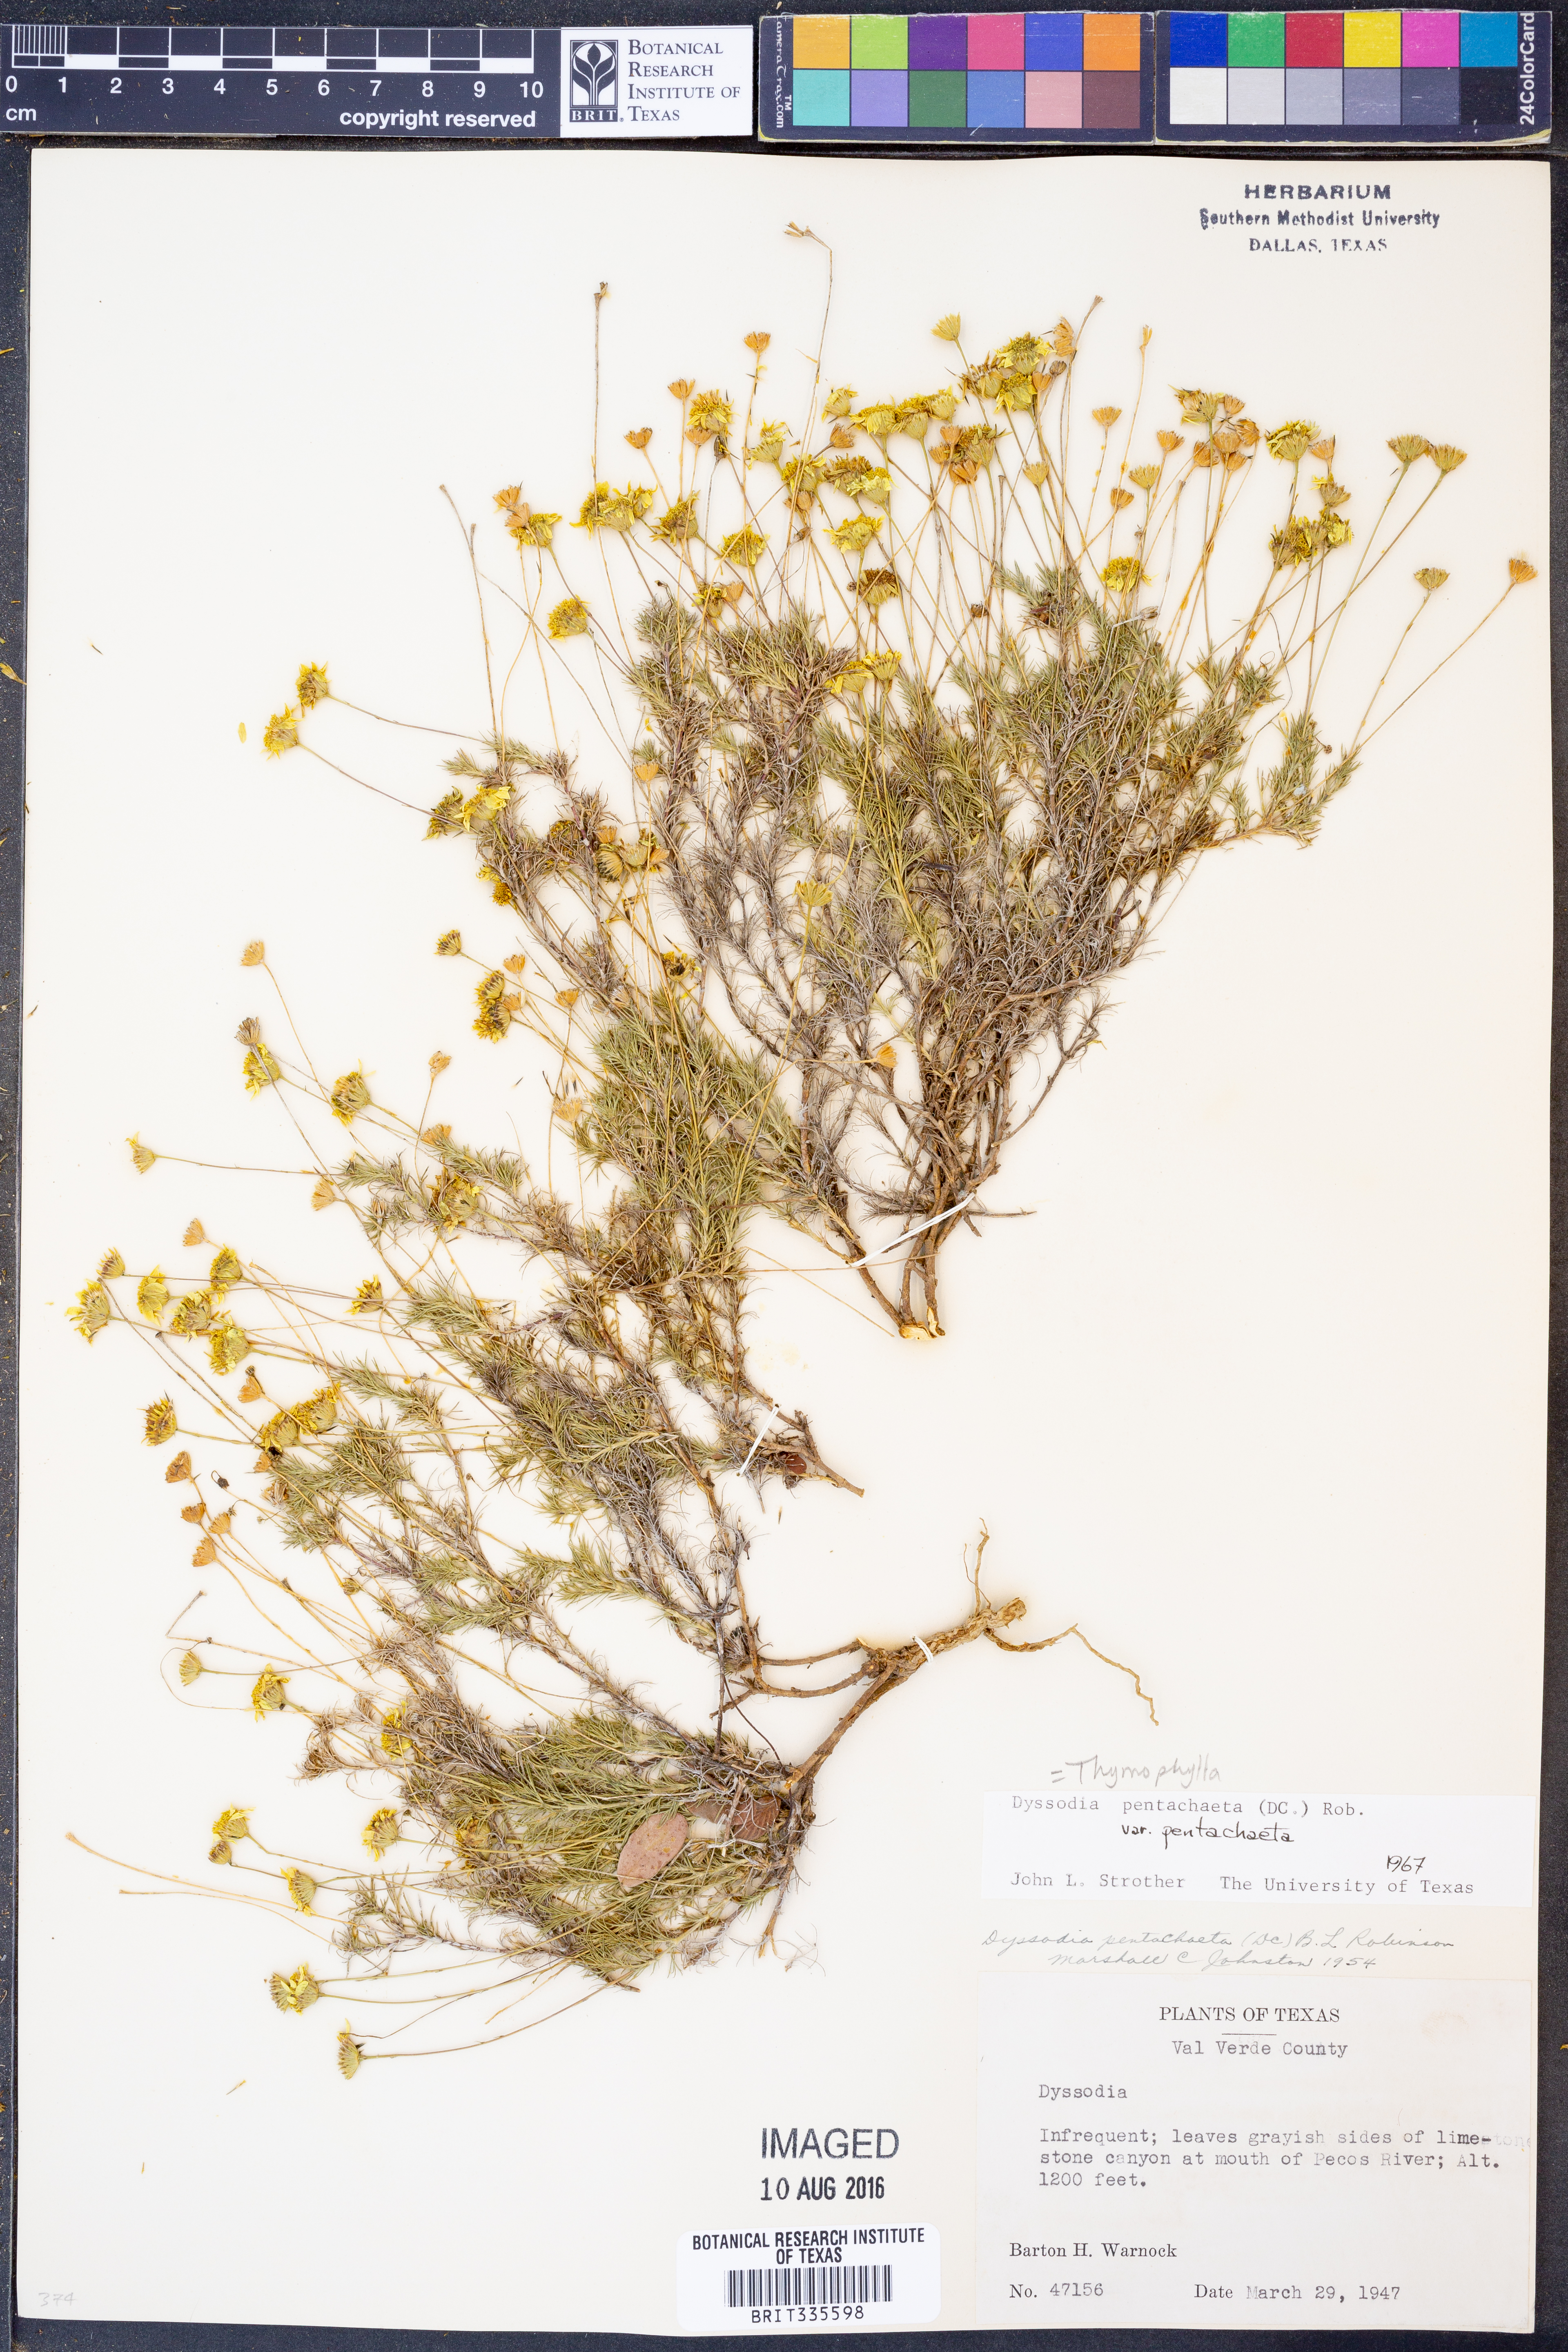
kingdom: Plantae
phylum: Tracheophyta
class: Magnoliopsida
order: Asterales
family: Asteraceae
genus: Thymophylla
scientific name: Thymophylla pentachaeta
